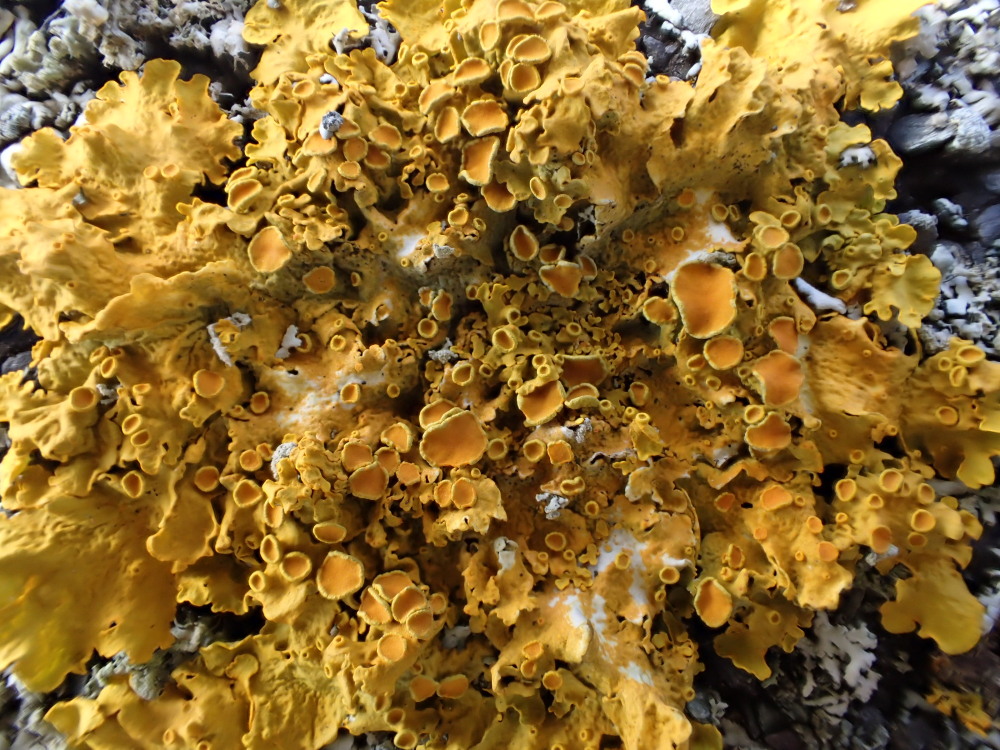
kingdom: Fungi
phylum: Ascomycota
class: Lecanoromycetes
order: Teloschistales
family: Teloschistaceae
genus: Xanthoria
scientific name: Xanthoria parietina
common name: almindelig væggelav
